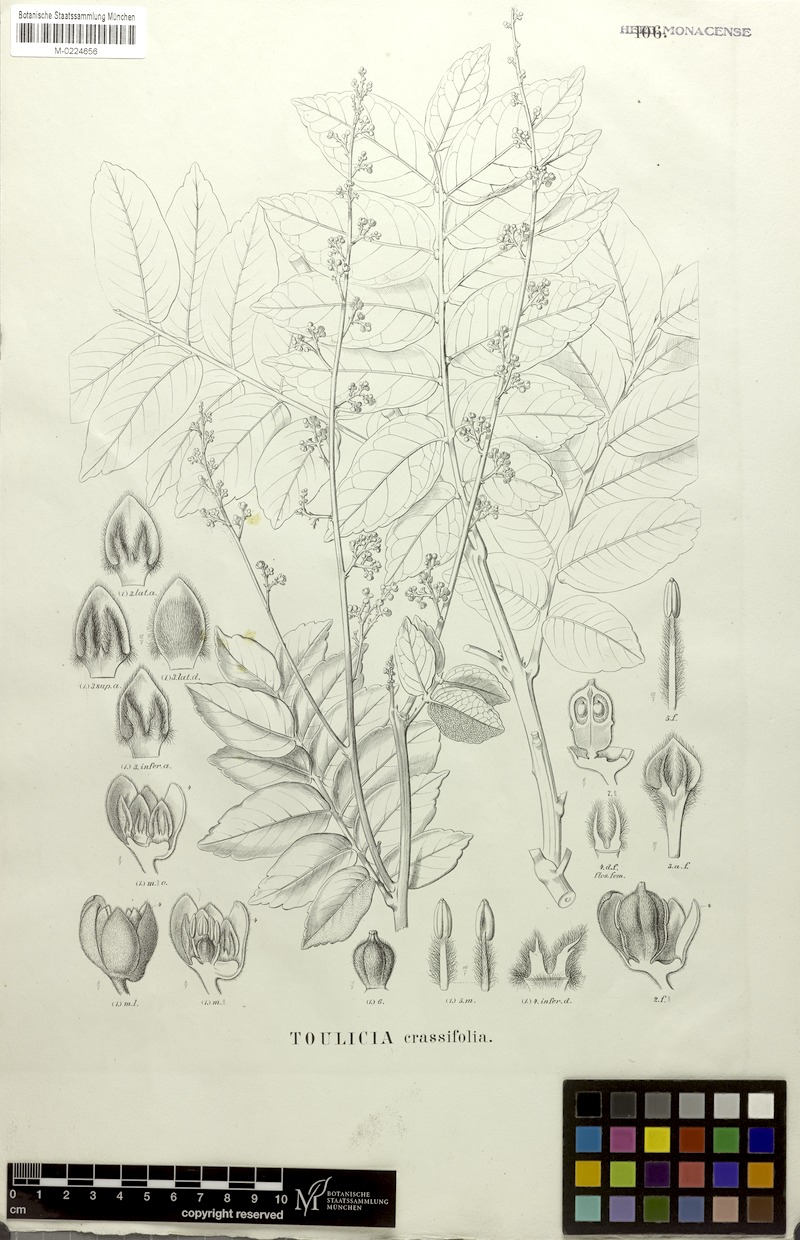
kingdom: Plantae
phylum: Tracheophyta
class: Magnoliopsida
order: Sapindales
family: Sapindaceae
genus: Toulicia
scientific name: Toulicia crassifolia
